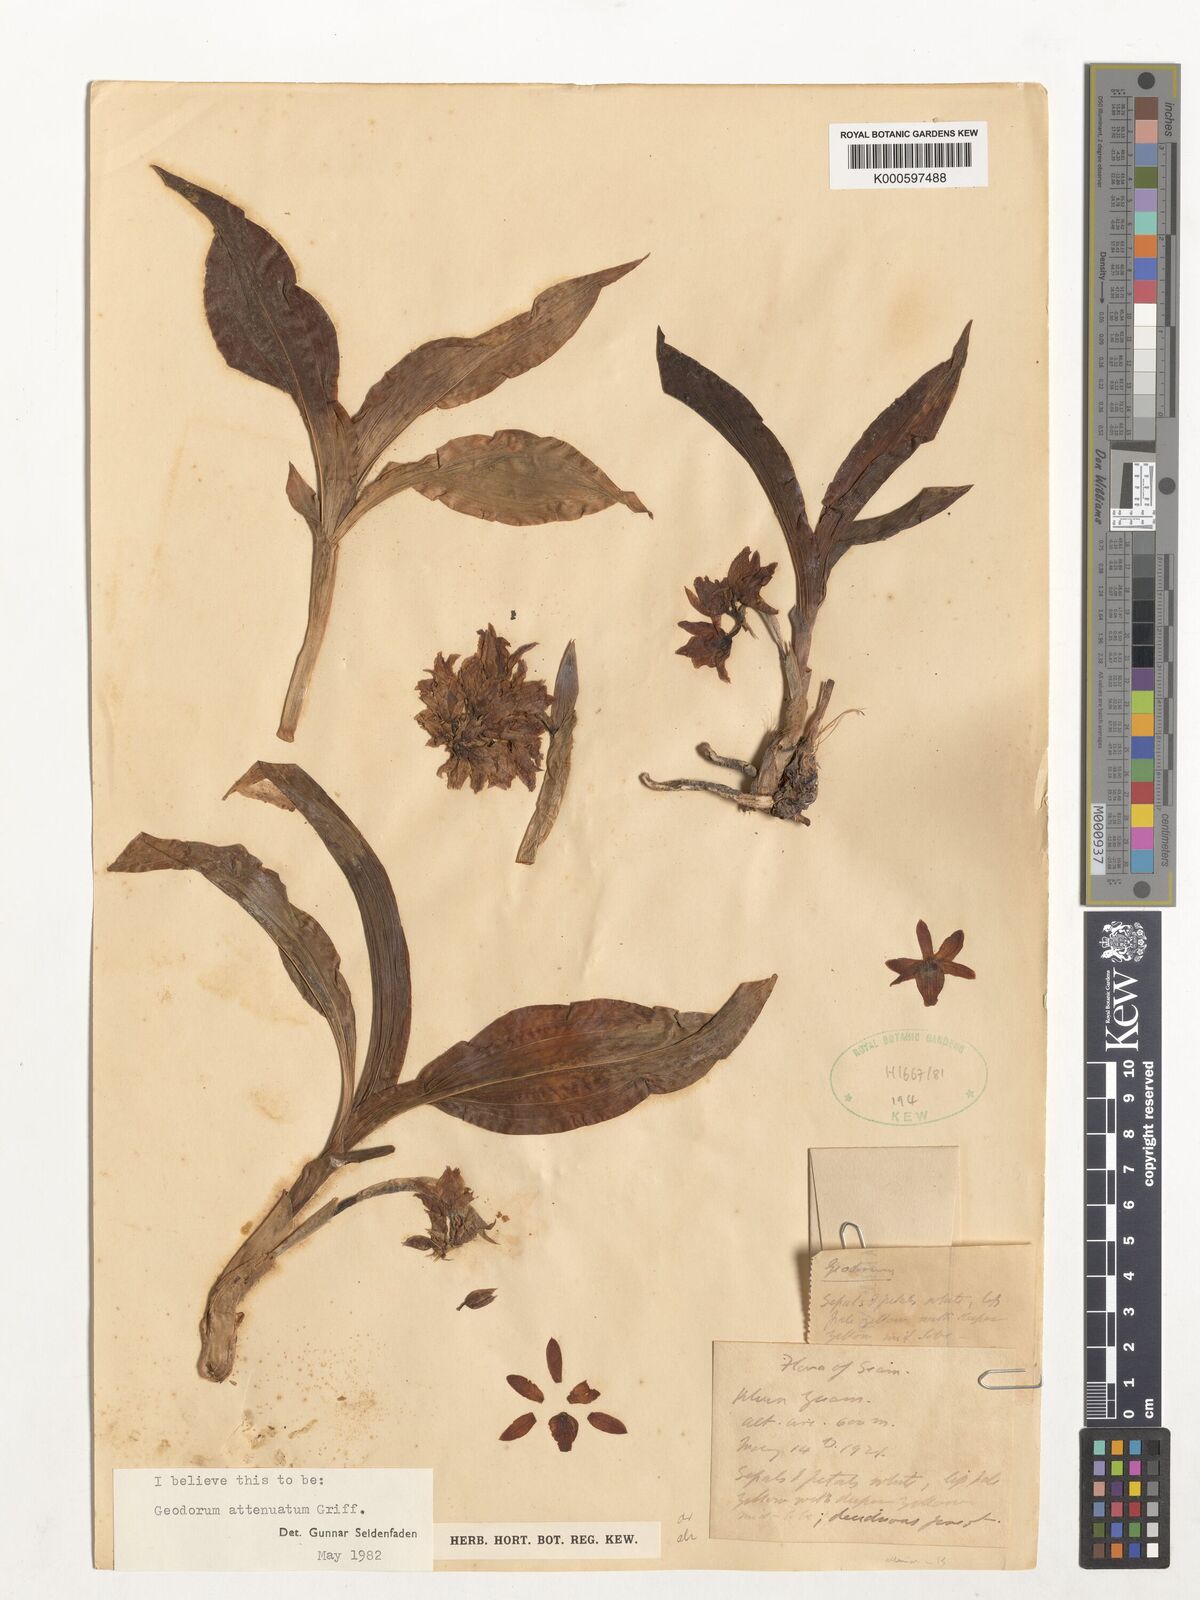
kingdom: Plantae
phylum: Tracheophyta
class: Liliopsida
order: Asparagales
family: Orchidaceae
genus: Eulophia
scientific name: Eulophia attenuata
